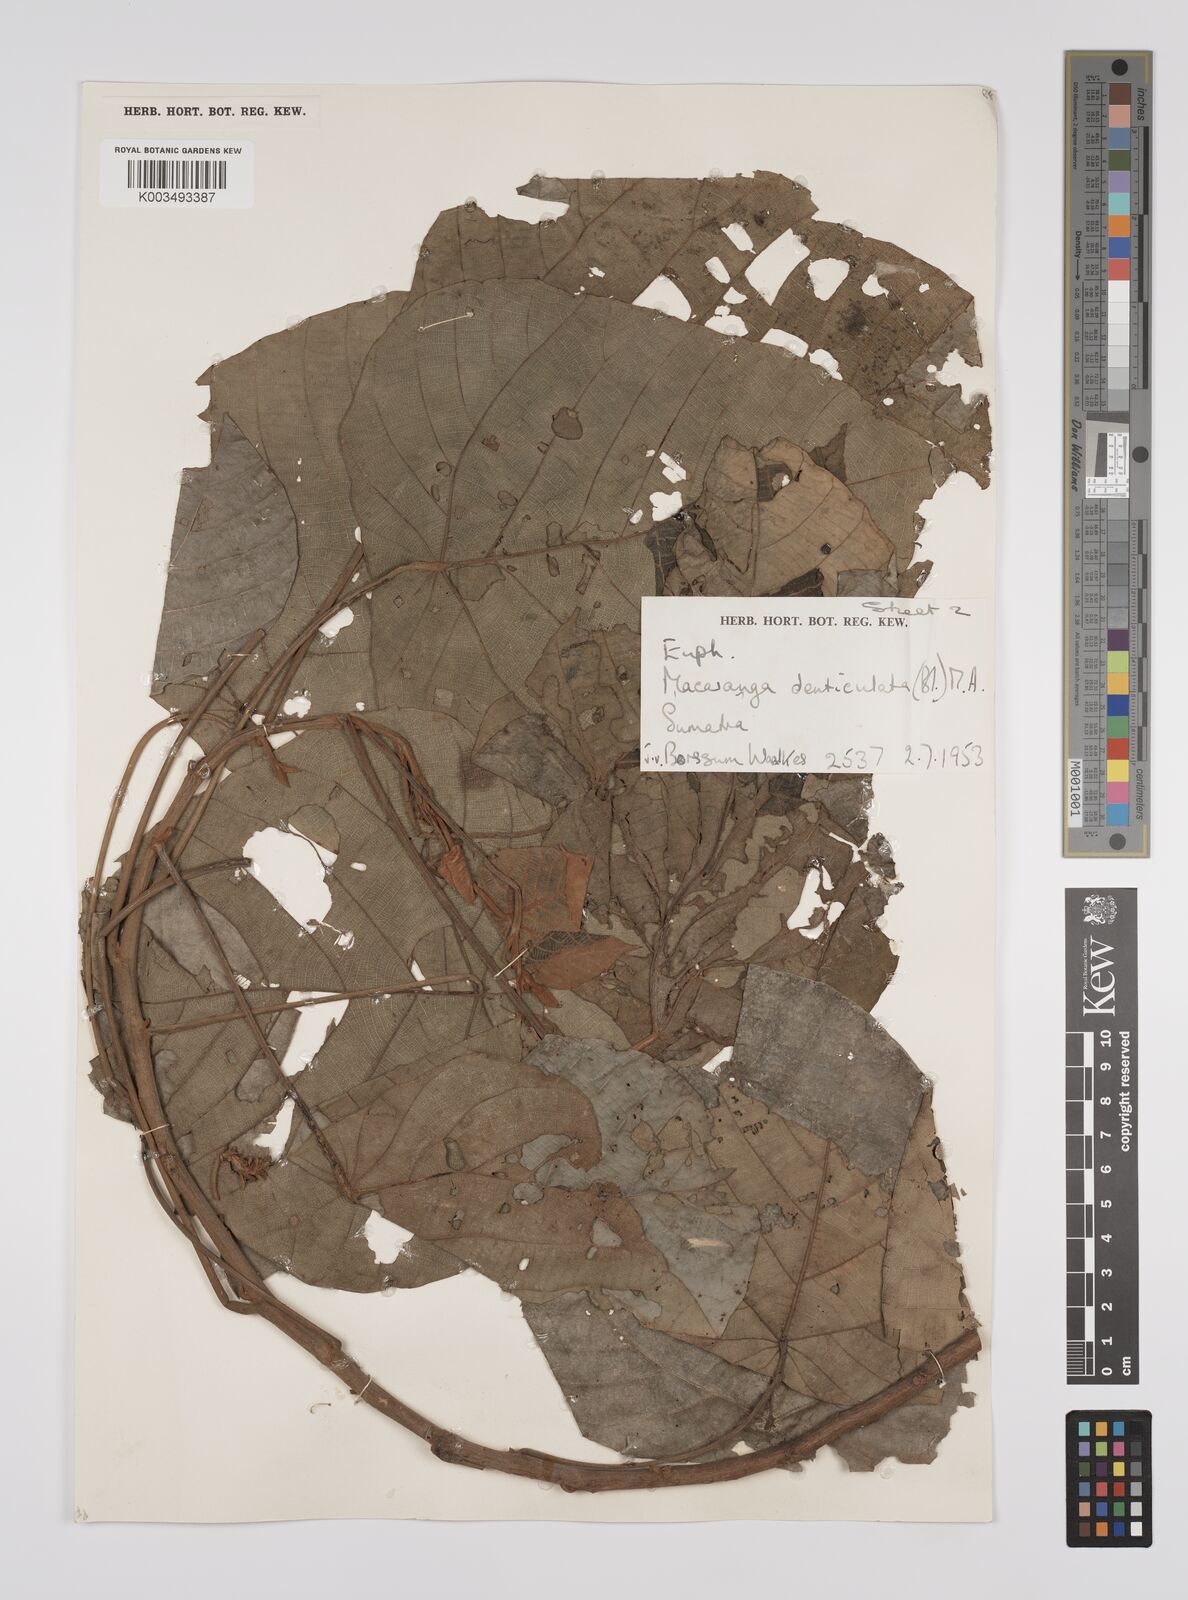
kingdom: Plantae
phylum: Tracheophyta
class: Magnoliopsida
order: Malpighiales
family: Euphorbiaceae
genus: Macaranga
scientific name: Macaranga denticulata
